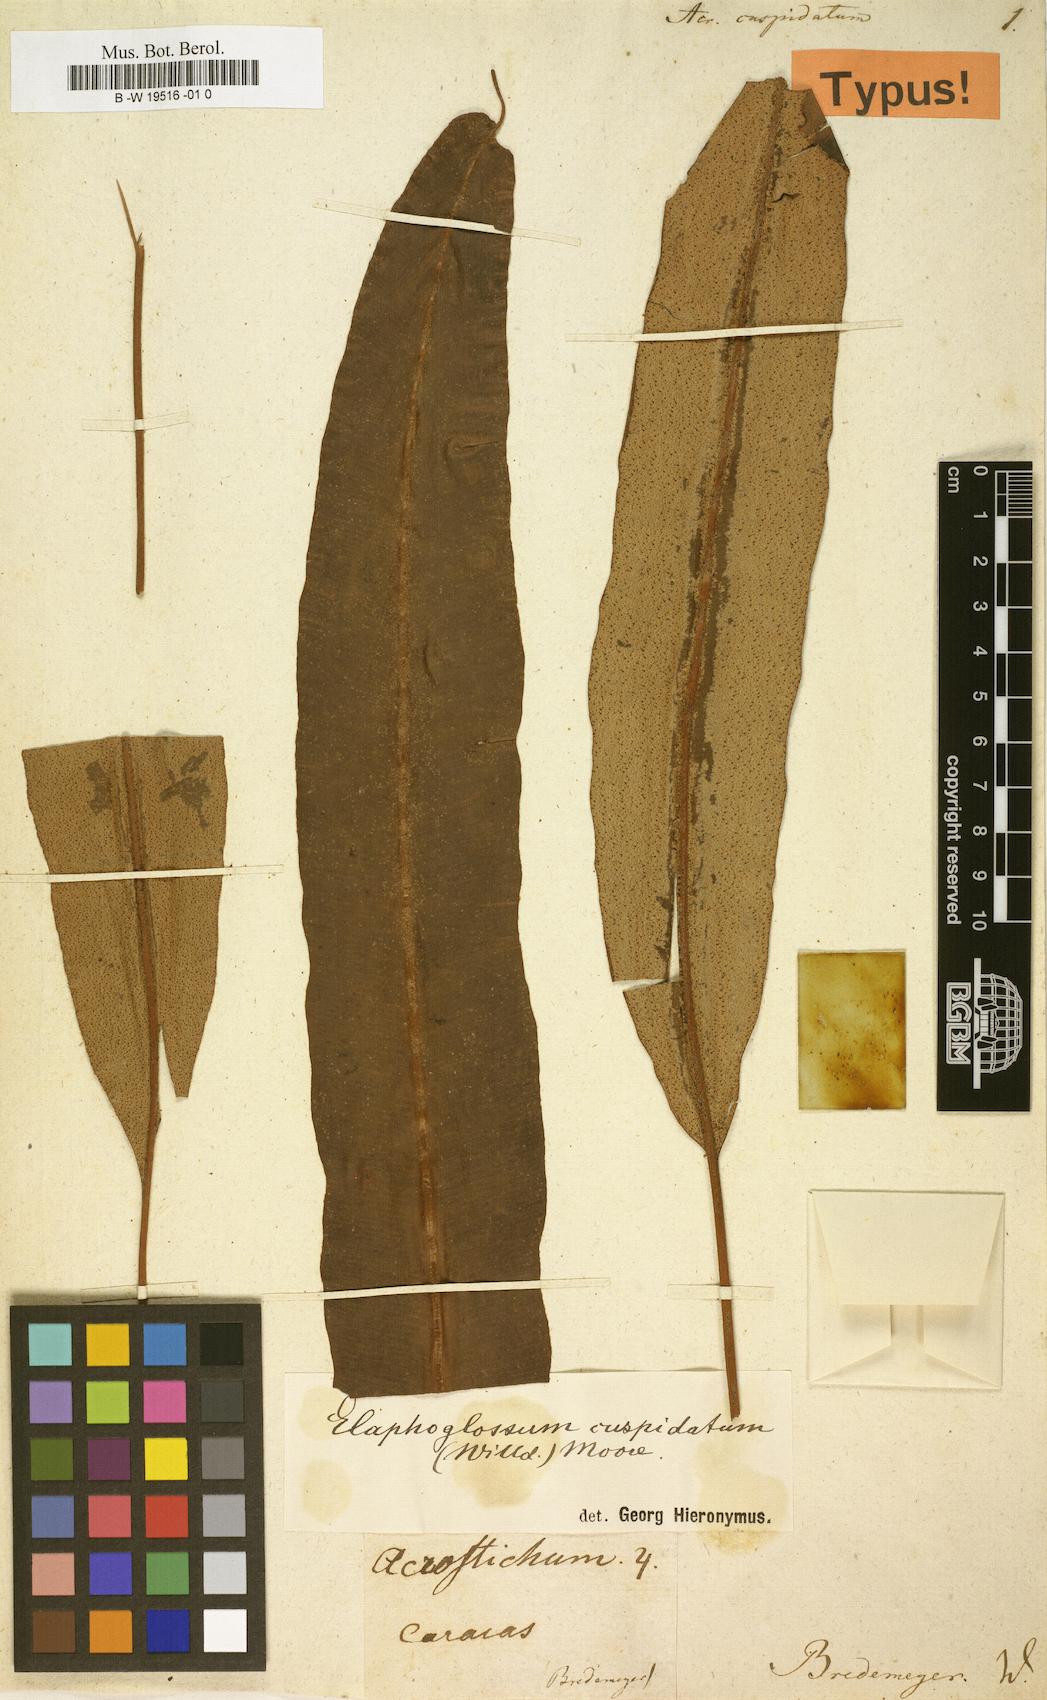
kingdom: Plantae
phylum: Tracheophyta
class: Polypodiopsida
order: Polypodiales
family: Dryopteridaceae
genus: Elaphoglossum
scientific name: Elaphoglossum cuspidatum
